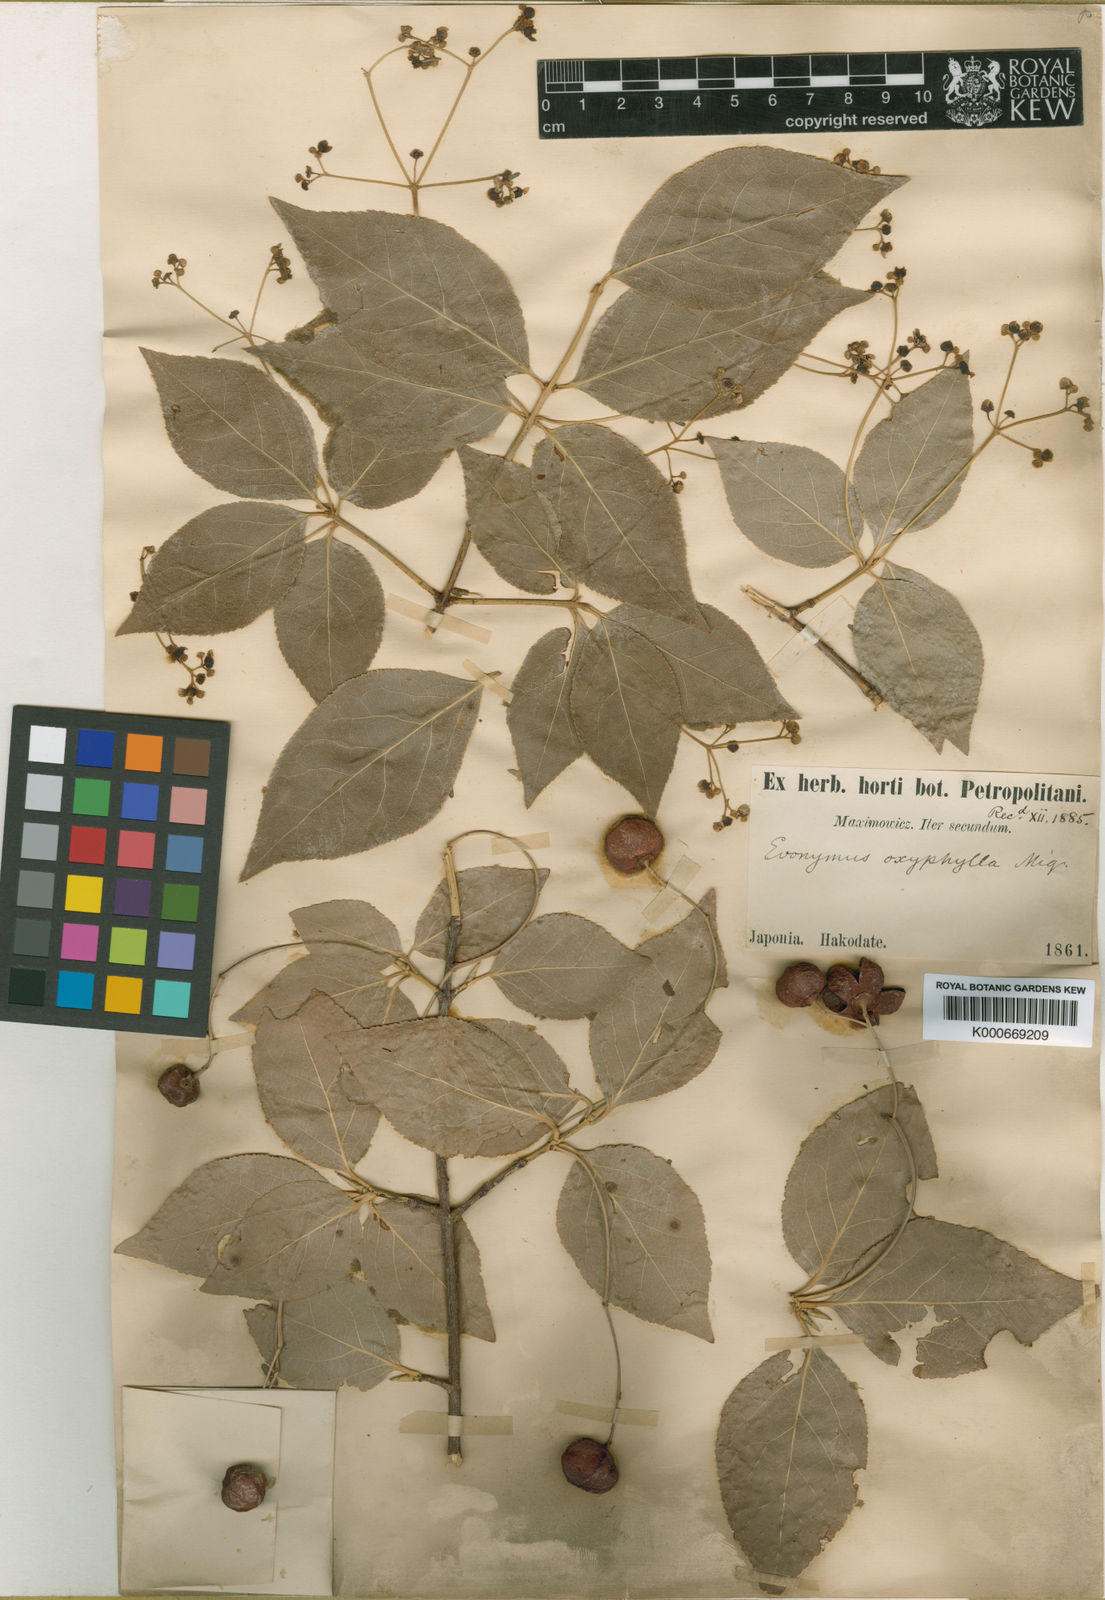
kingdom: Plantae
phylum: Tracheophyta
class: Magnoliopsida
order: Celastrales
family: Celastraceae
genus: Euonymus
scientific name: Euonymus oxyphyllus
